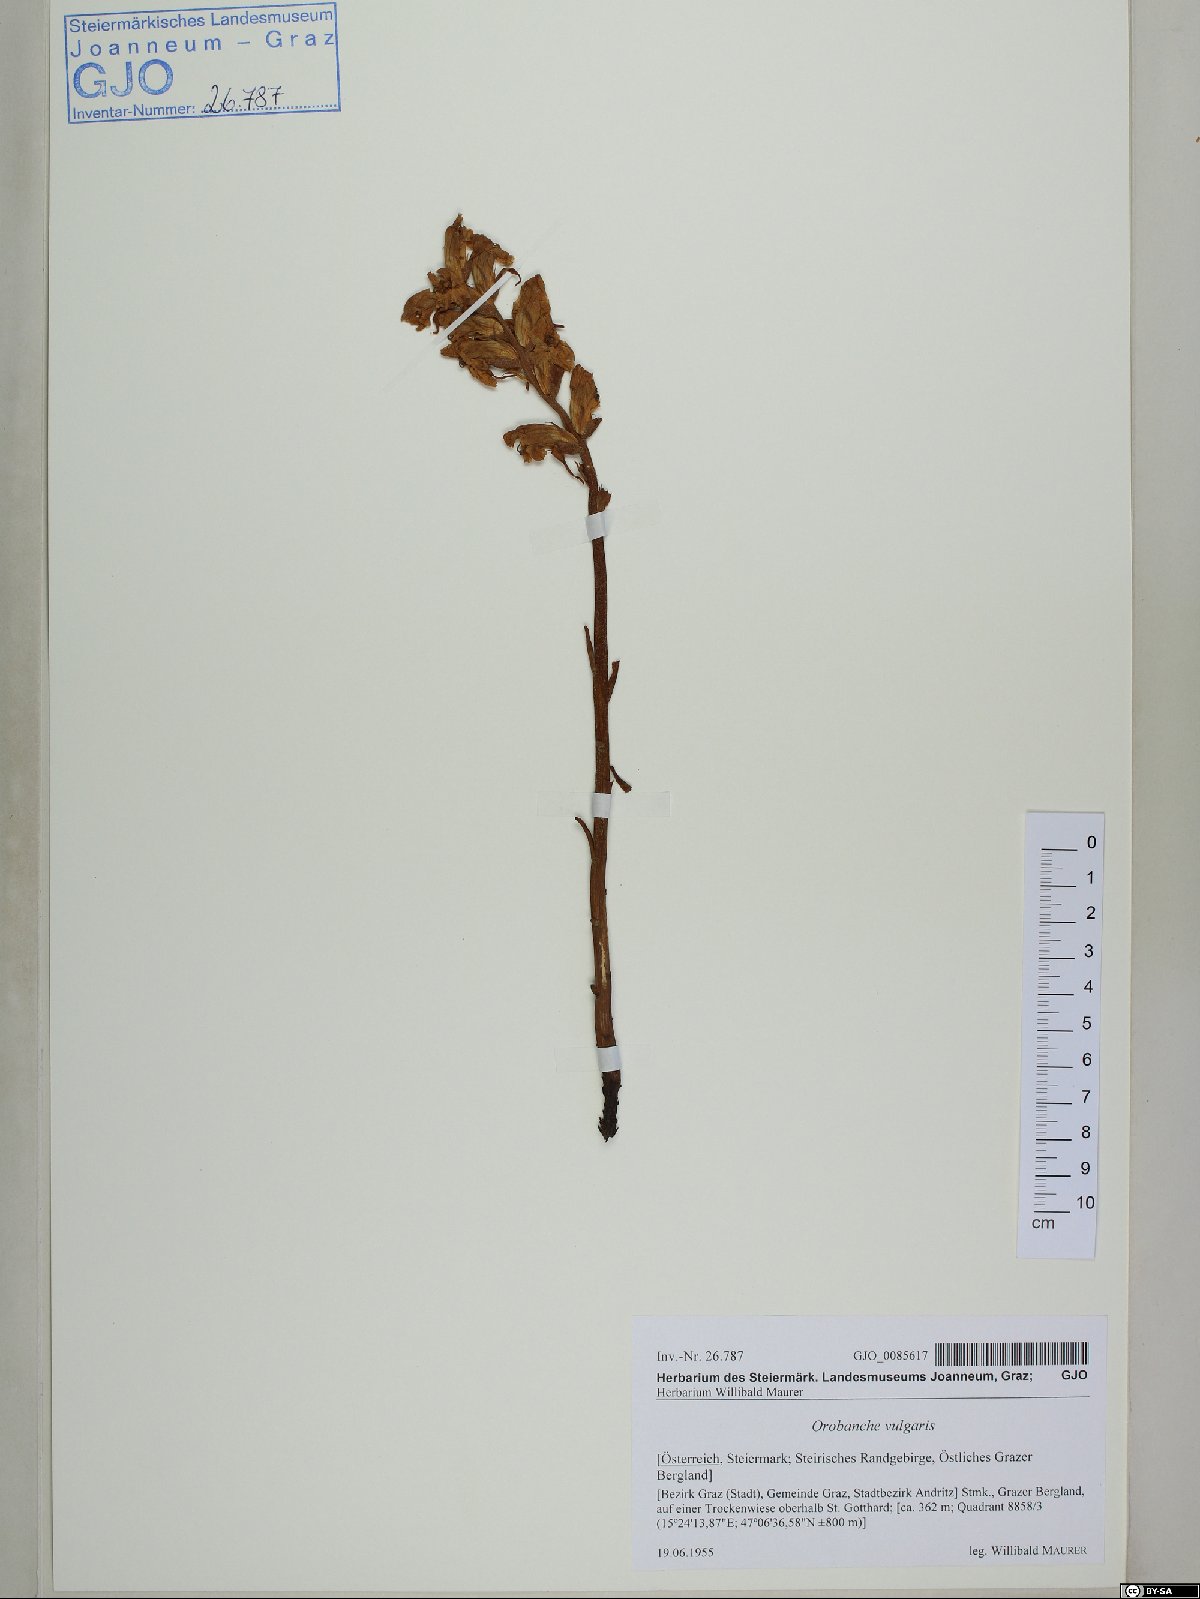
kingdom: Plantae
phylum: Tracheophyta
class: Magnoliopsida
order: Lamiales
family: Orobanchaceae
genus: Orobanche
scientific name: Orobanche caryophyllacea
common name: Bedstraw broomrape
